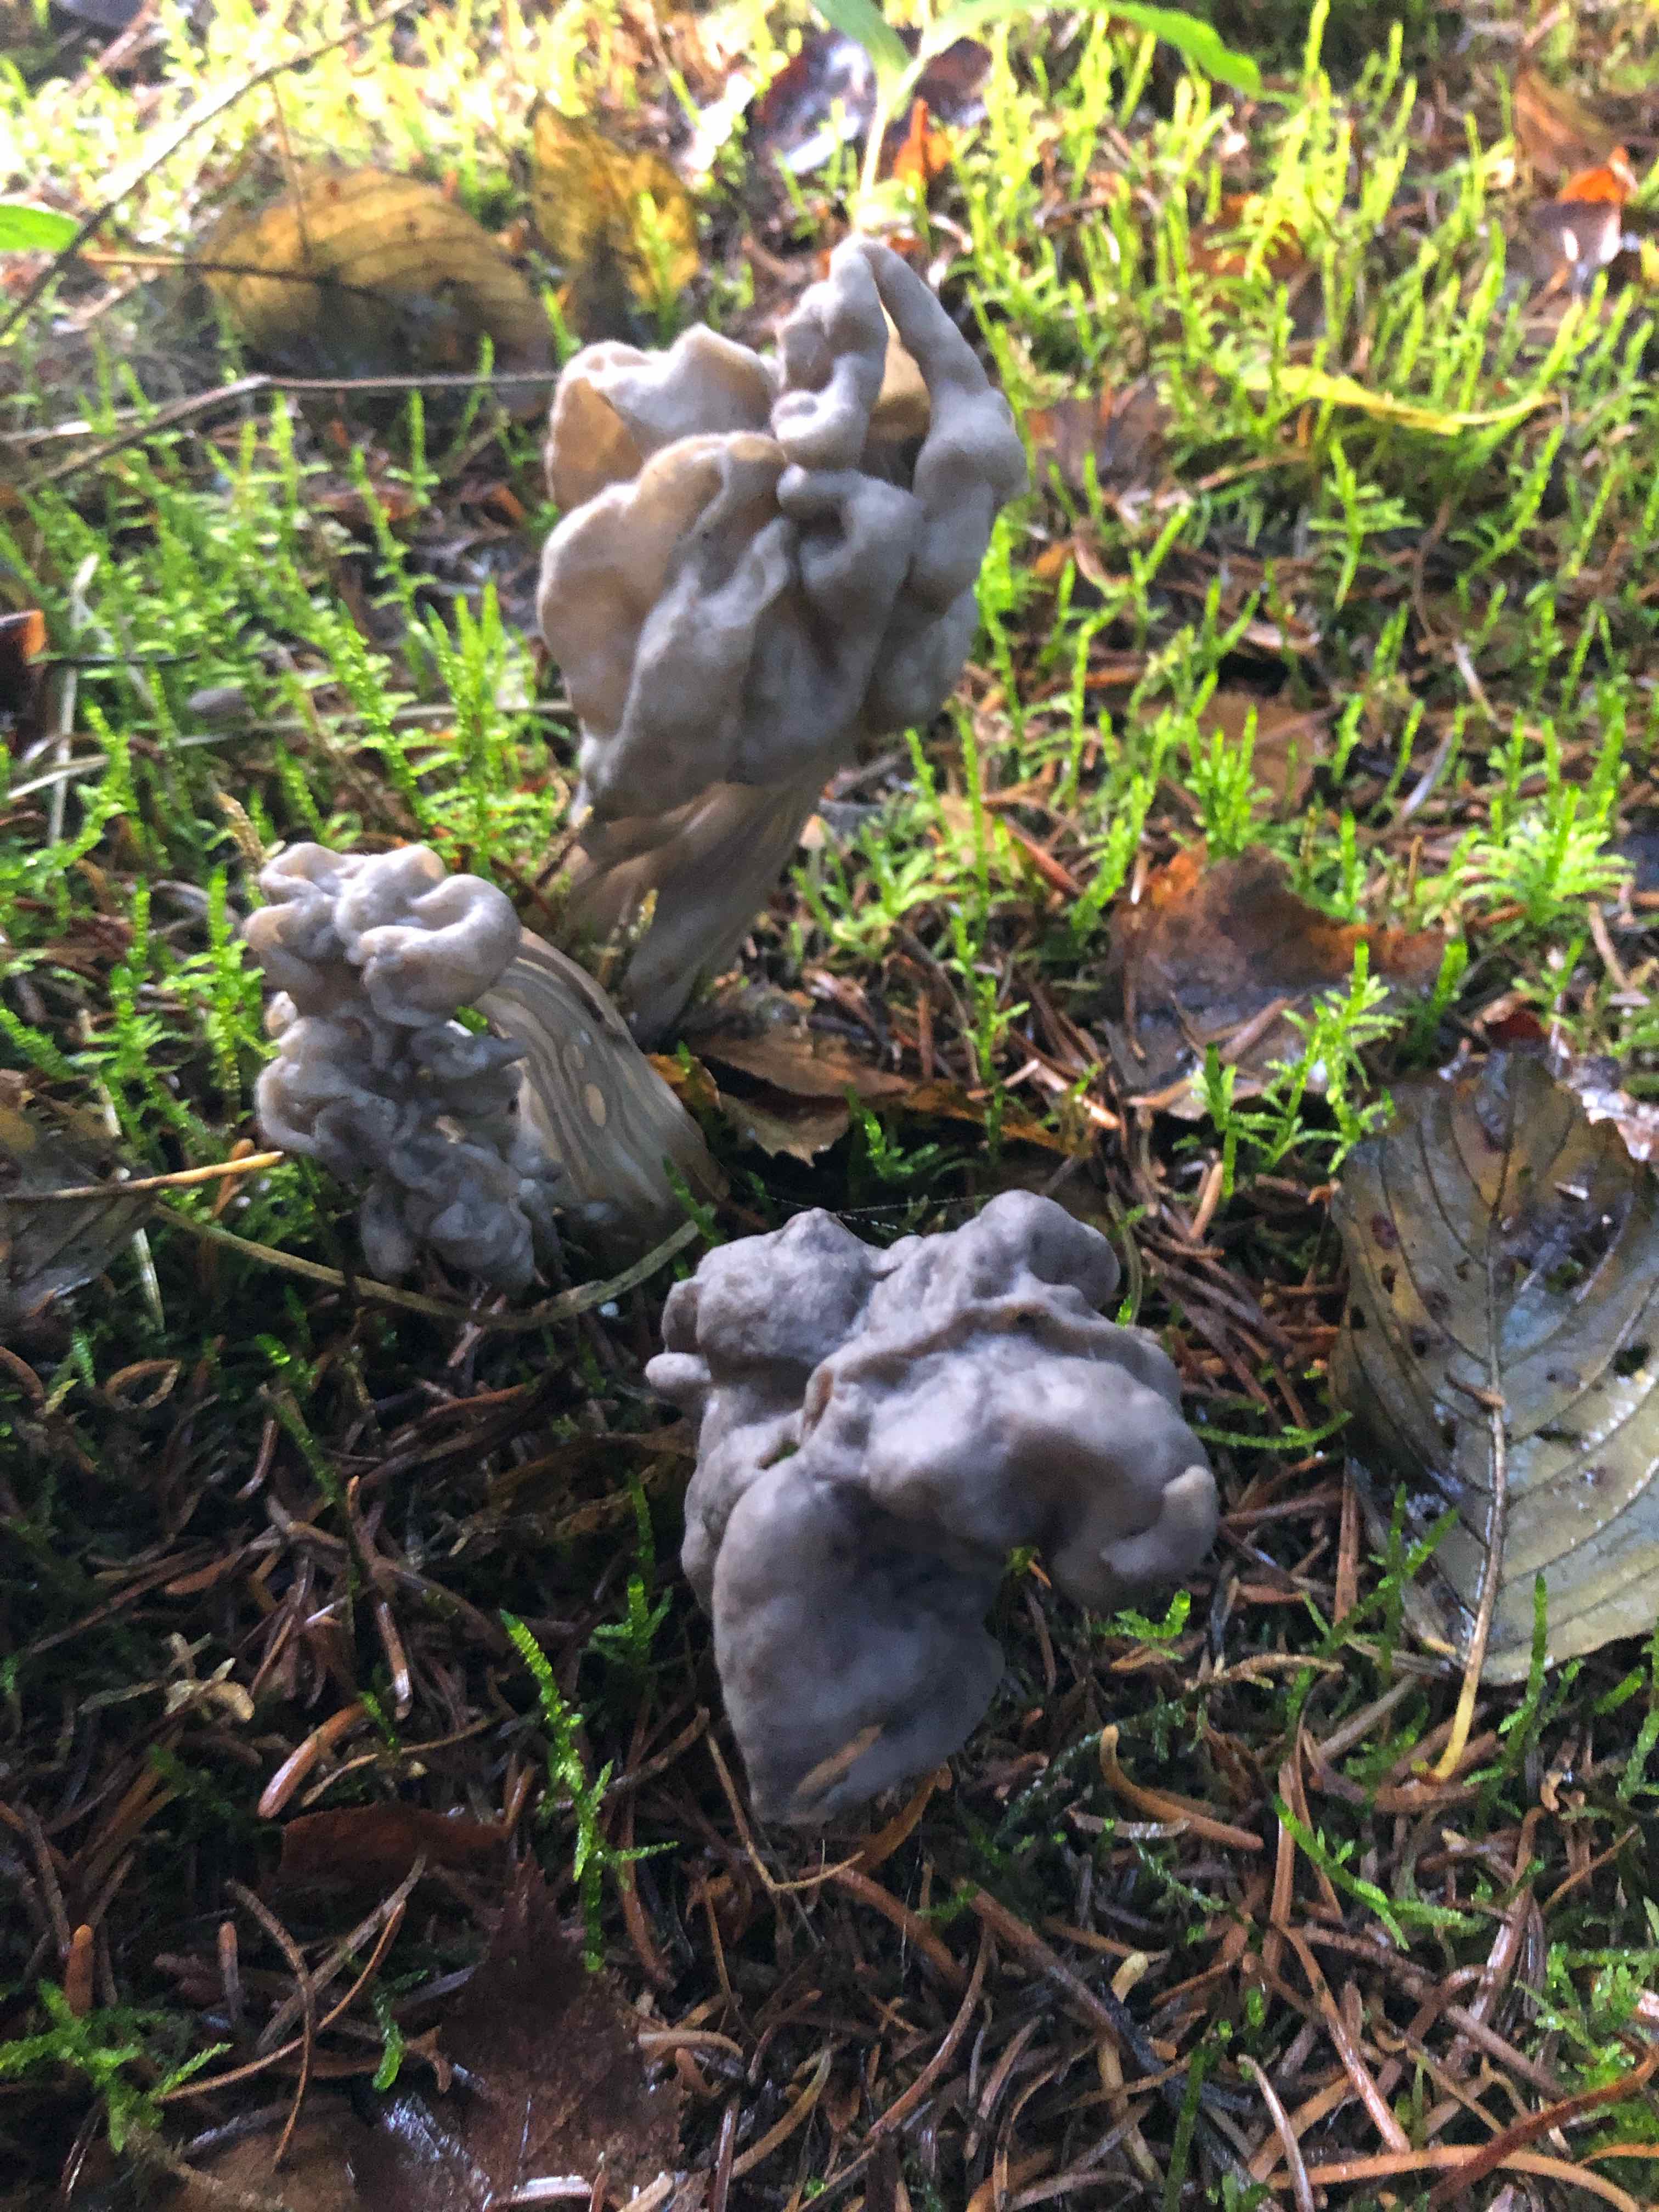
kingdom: Fungi
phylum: Ascomycota
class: Pezizomycetes
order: Pezizales
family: Helvellaceae
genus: Helvella
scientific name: Helvella lacunosa
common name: grubet foldhat
